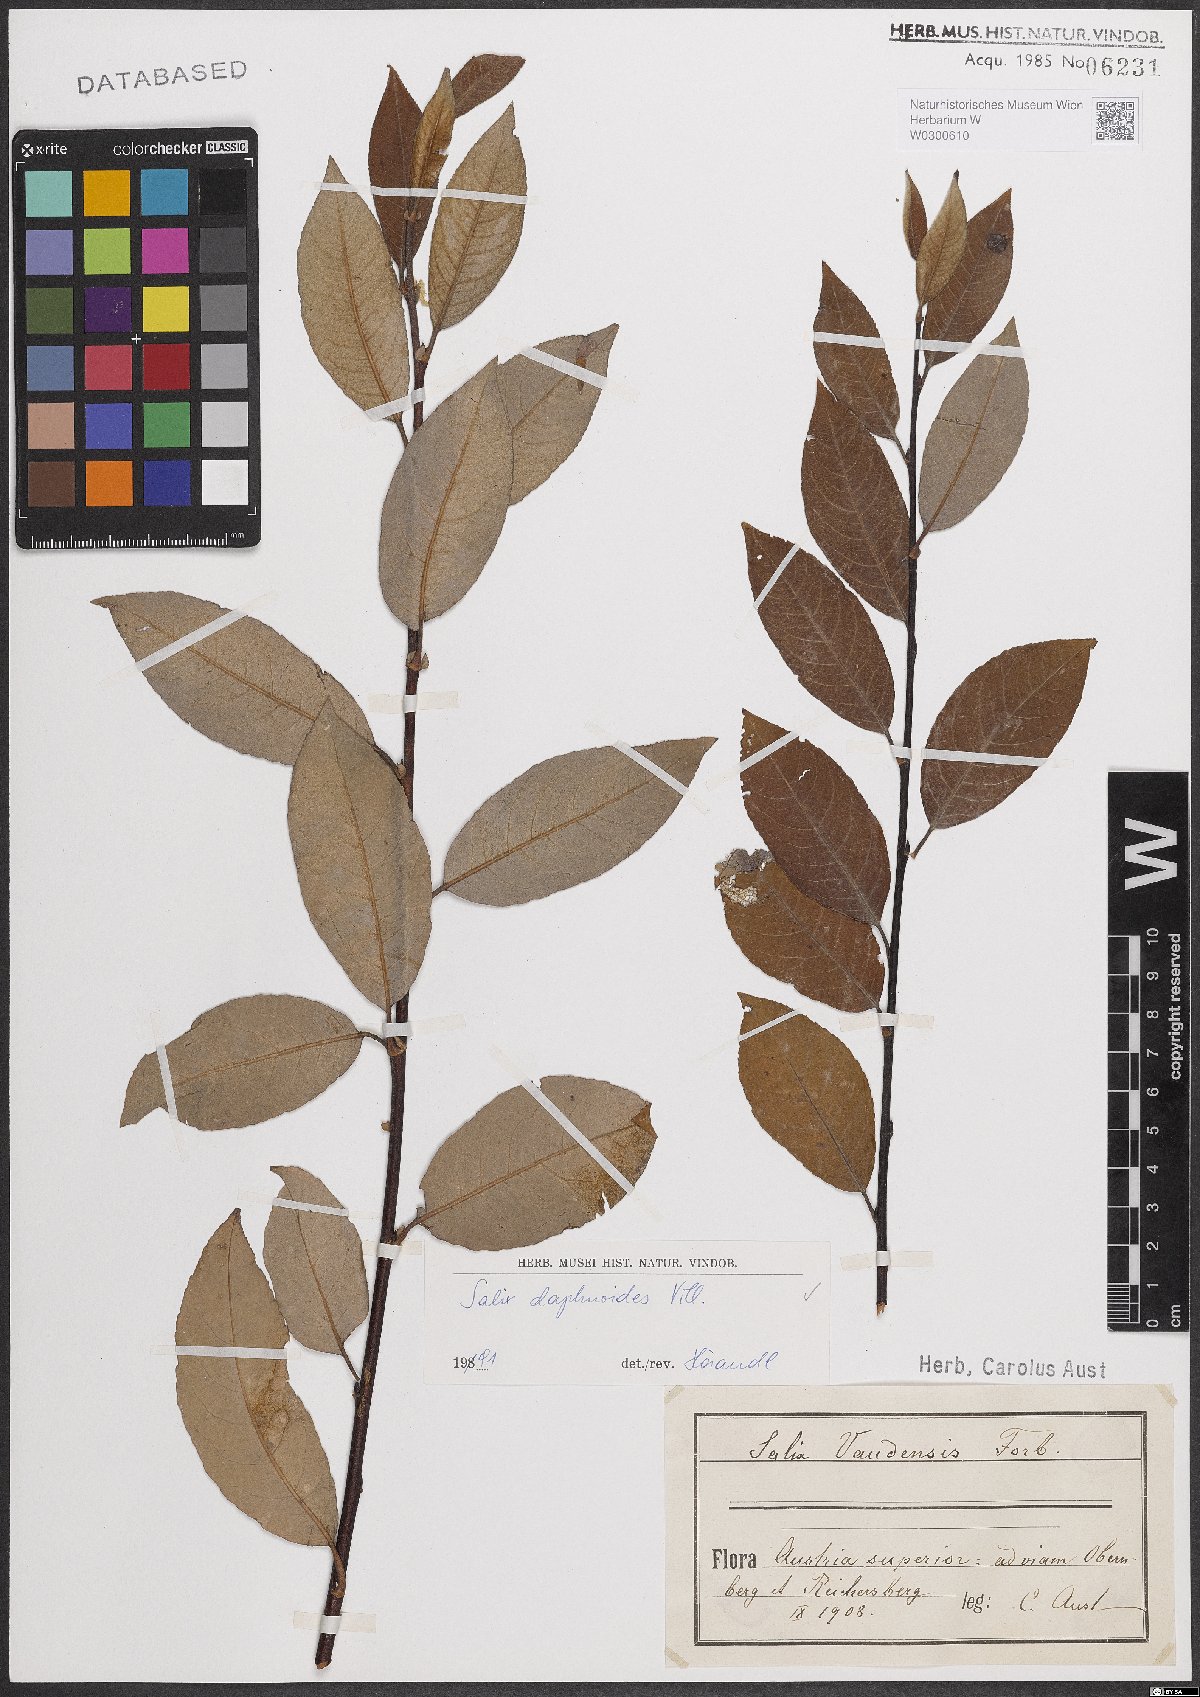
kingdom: Plantae
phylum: Tracheophyta
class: Magnoliopsida
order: Malpighiales
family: Salicaceae
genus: Salix
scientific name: Salix daphnoides
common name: European violet-willow
